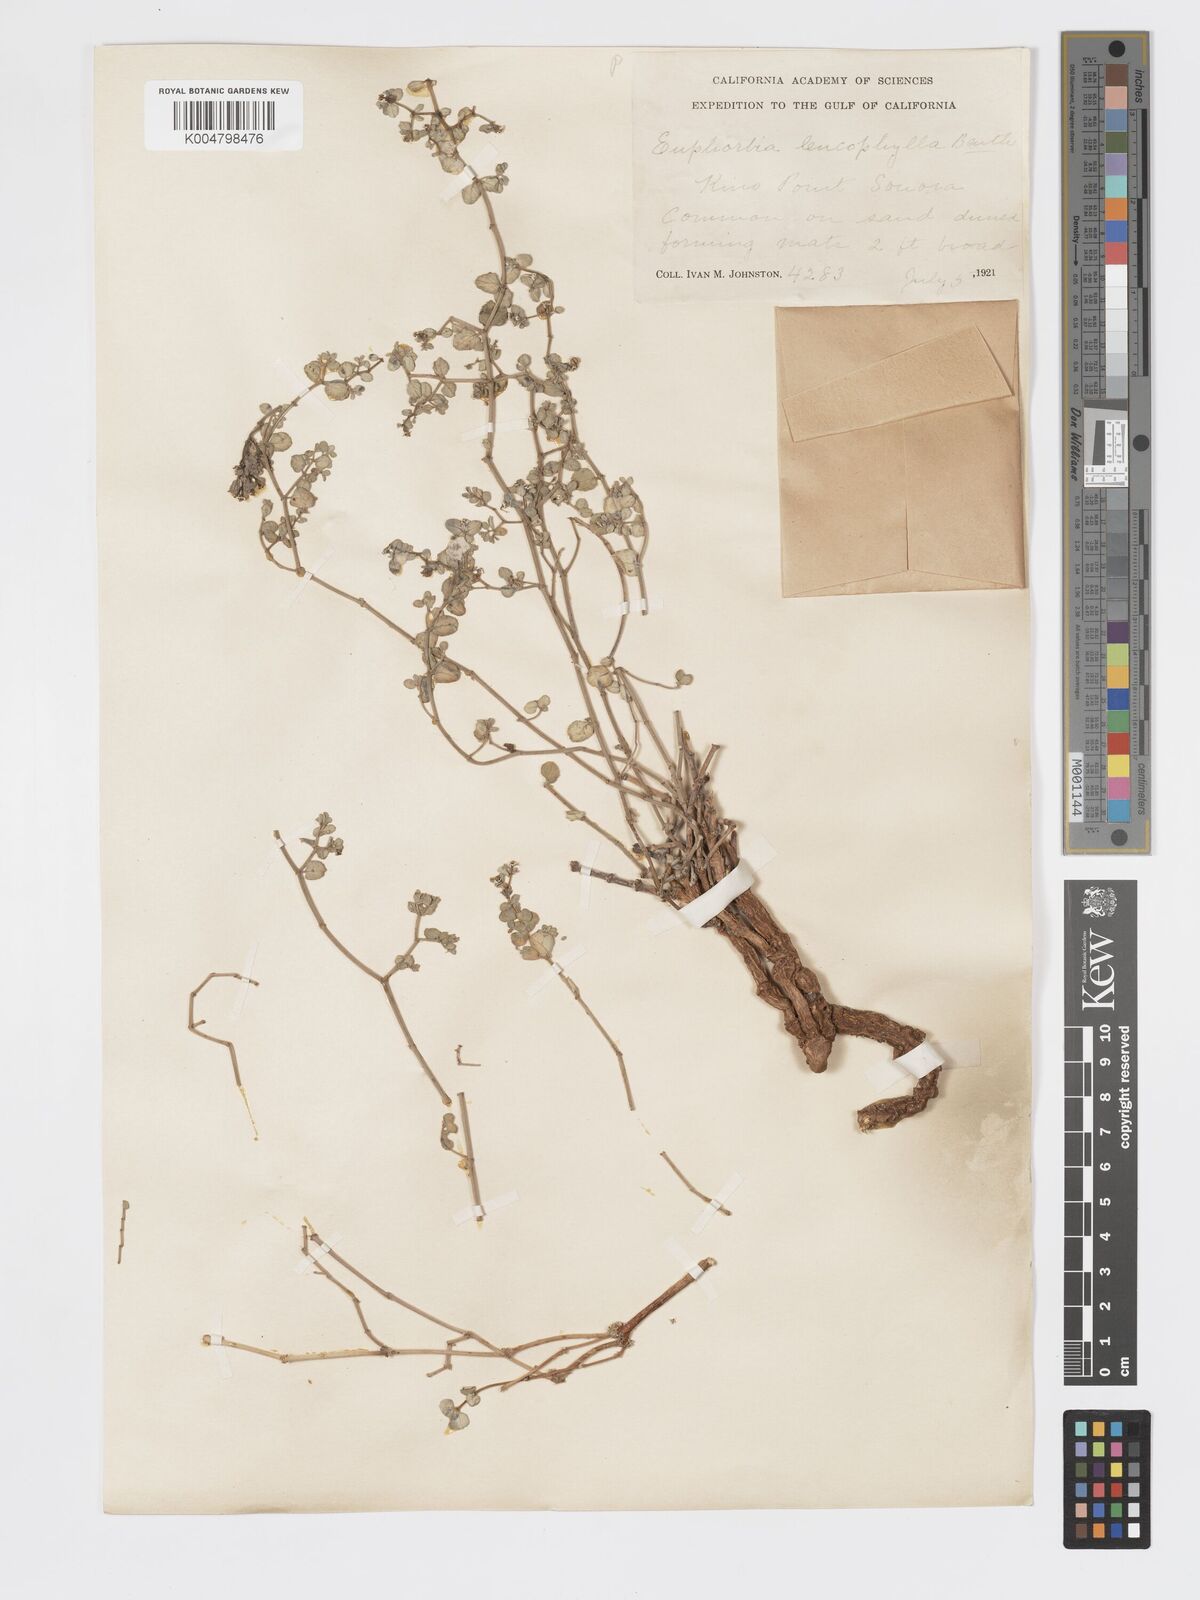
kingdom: Plantae
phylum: Tracheophyta
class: Magnoliopsida
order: Malpighiales
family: Euphorbiaceae
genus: Euphorbia
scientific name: Euphorbia leucophylla
